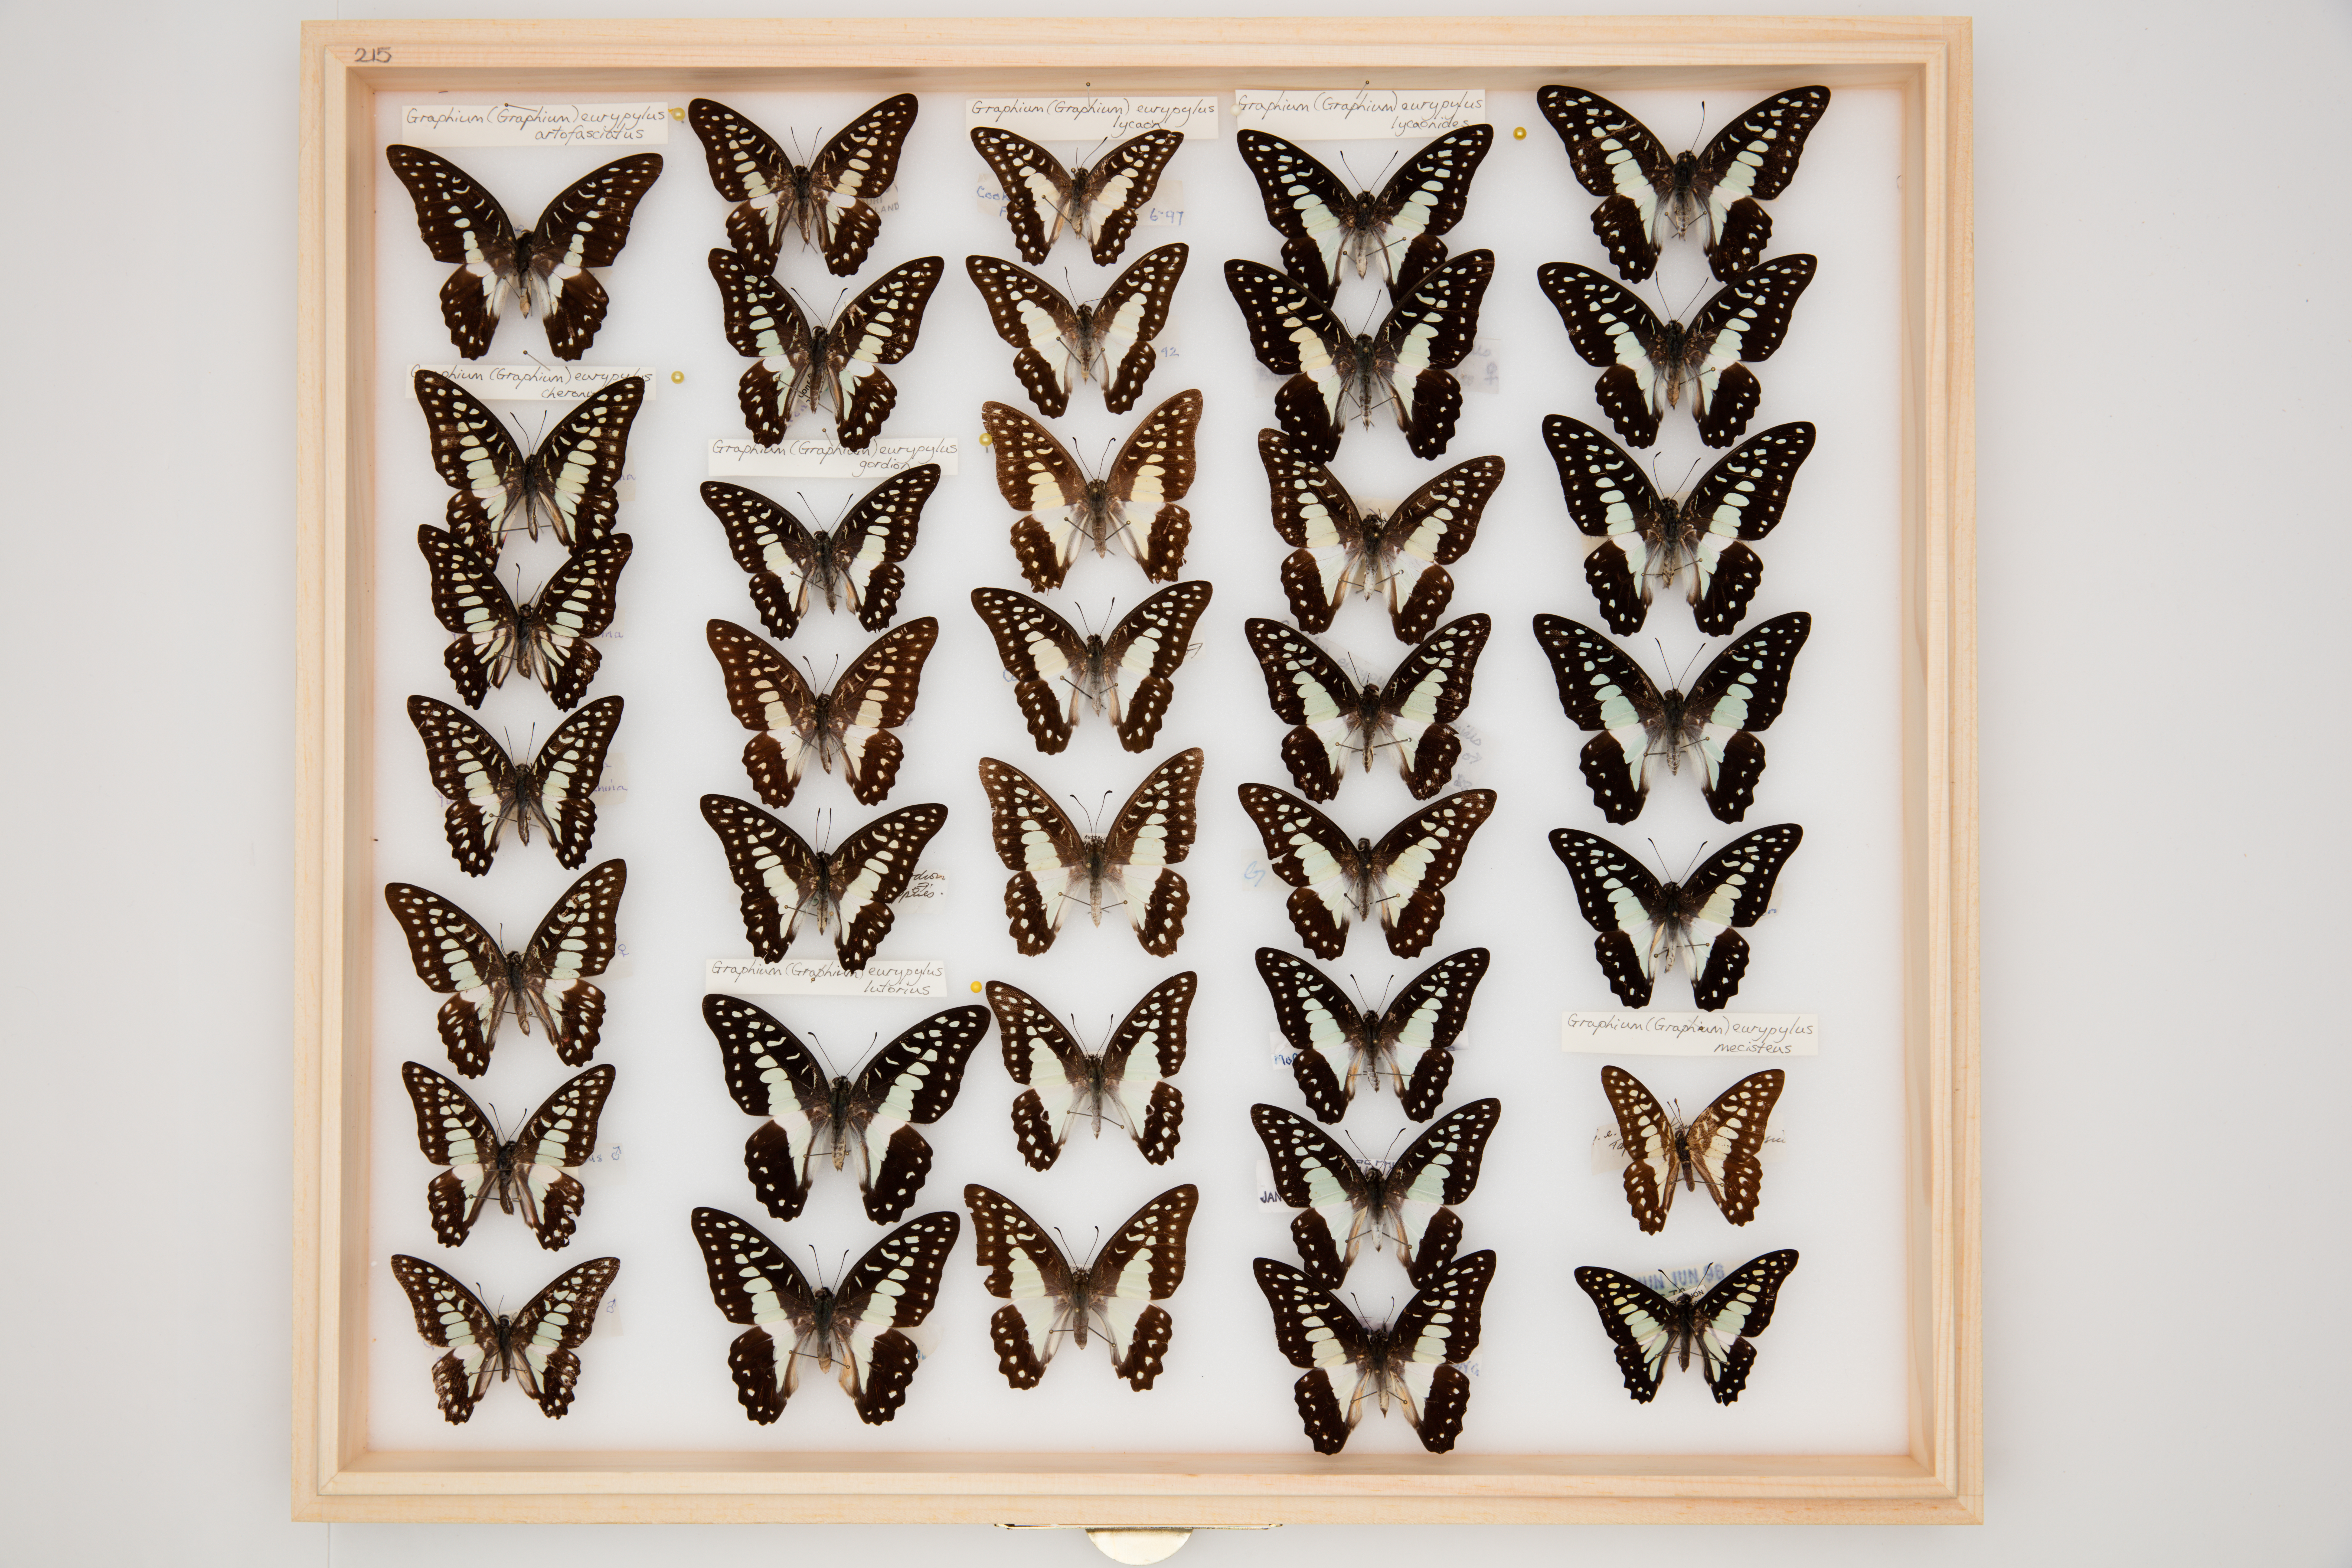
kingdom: Animalia
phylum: Arthropoda
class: Insecta
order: Lepidoptera
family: Papilionidae
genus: Graphium
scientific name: Graphium eurypylus
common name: Great jay
